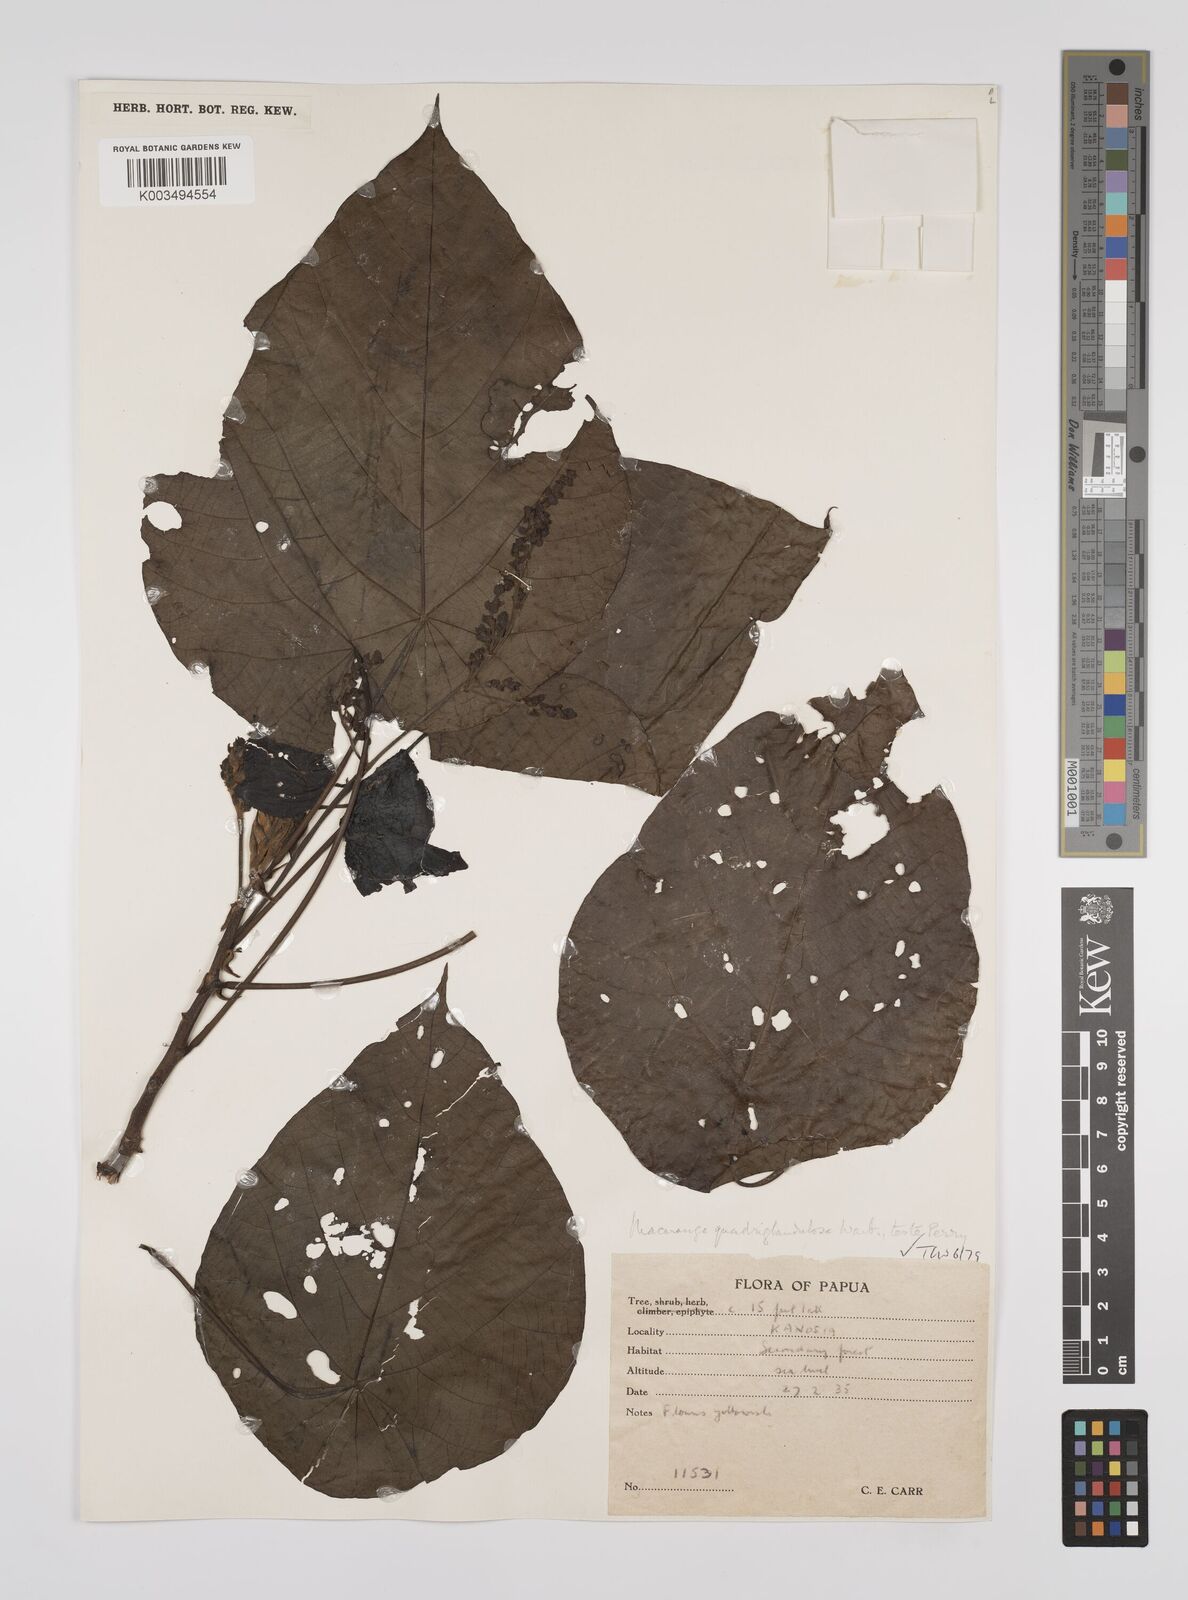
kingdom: Plantae
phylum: Tracheophyta
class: Magnoliopsida
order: Malpighiales
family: Euphorbiaceae
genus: Macaranga
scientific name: Macaranga quadriglandulosa
